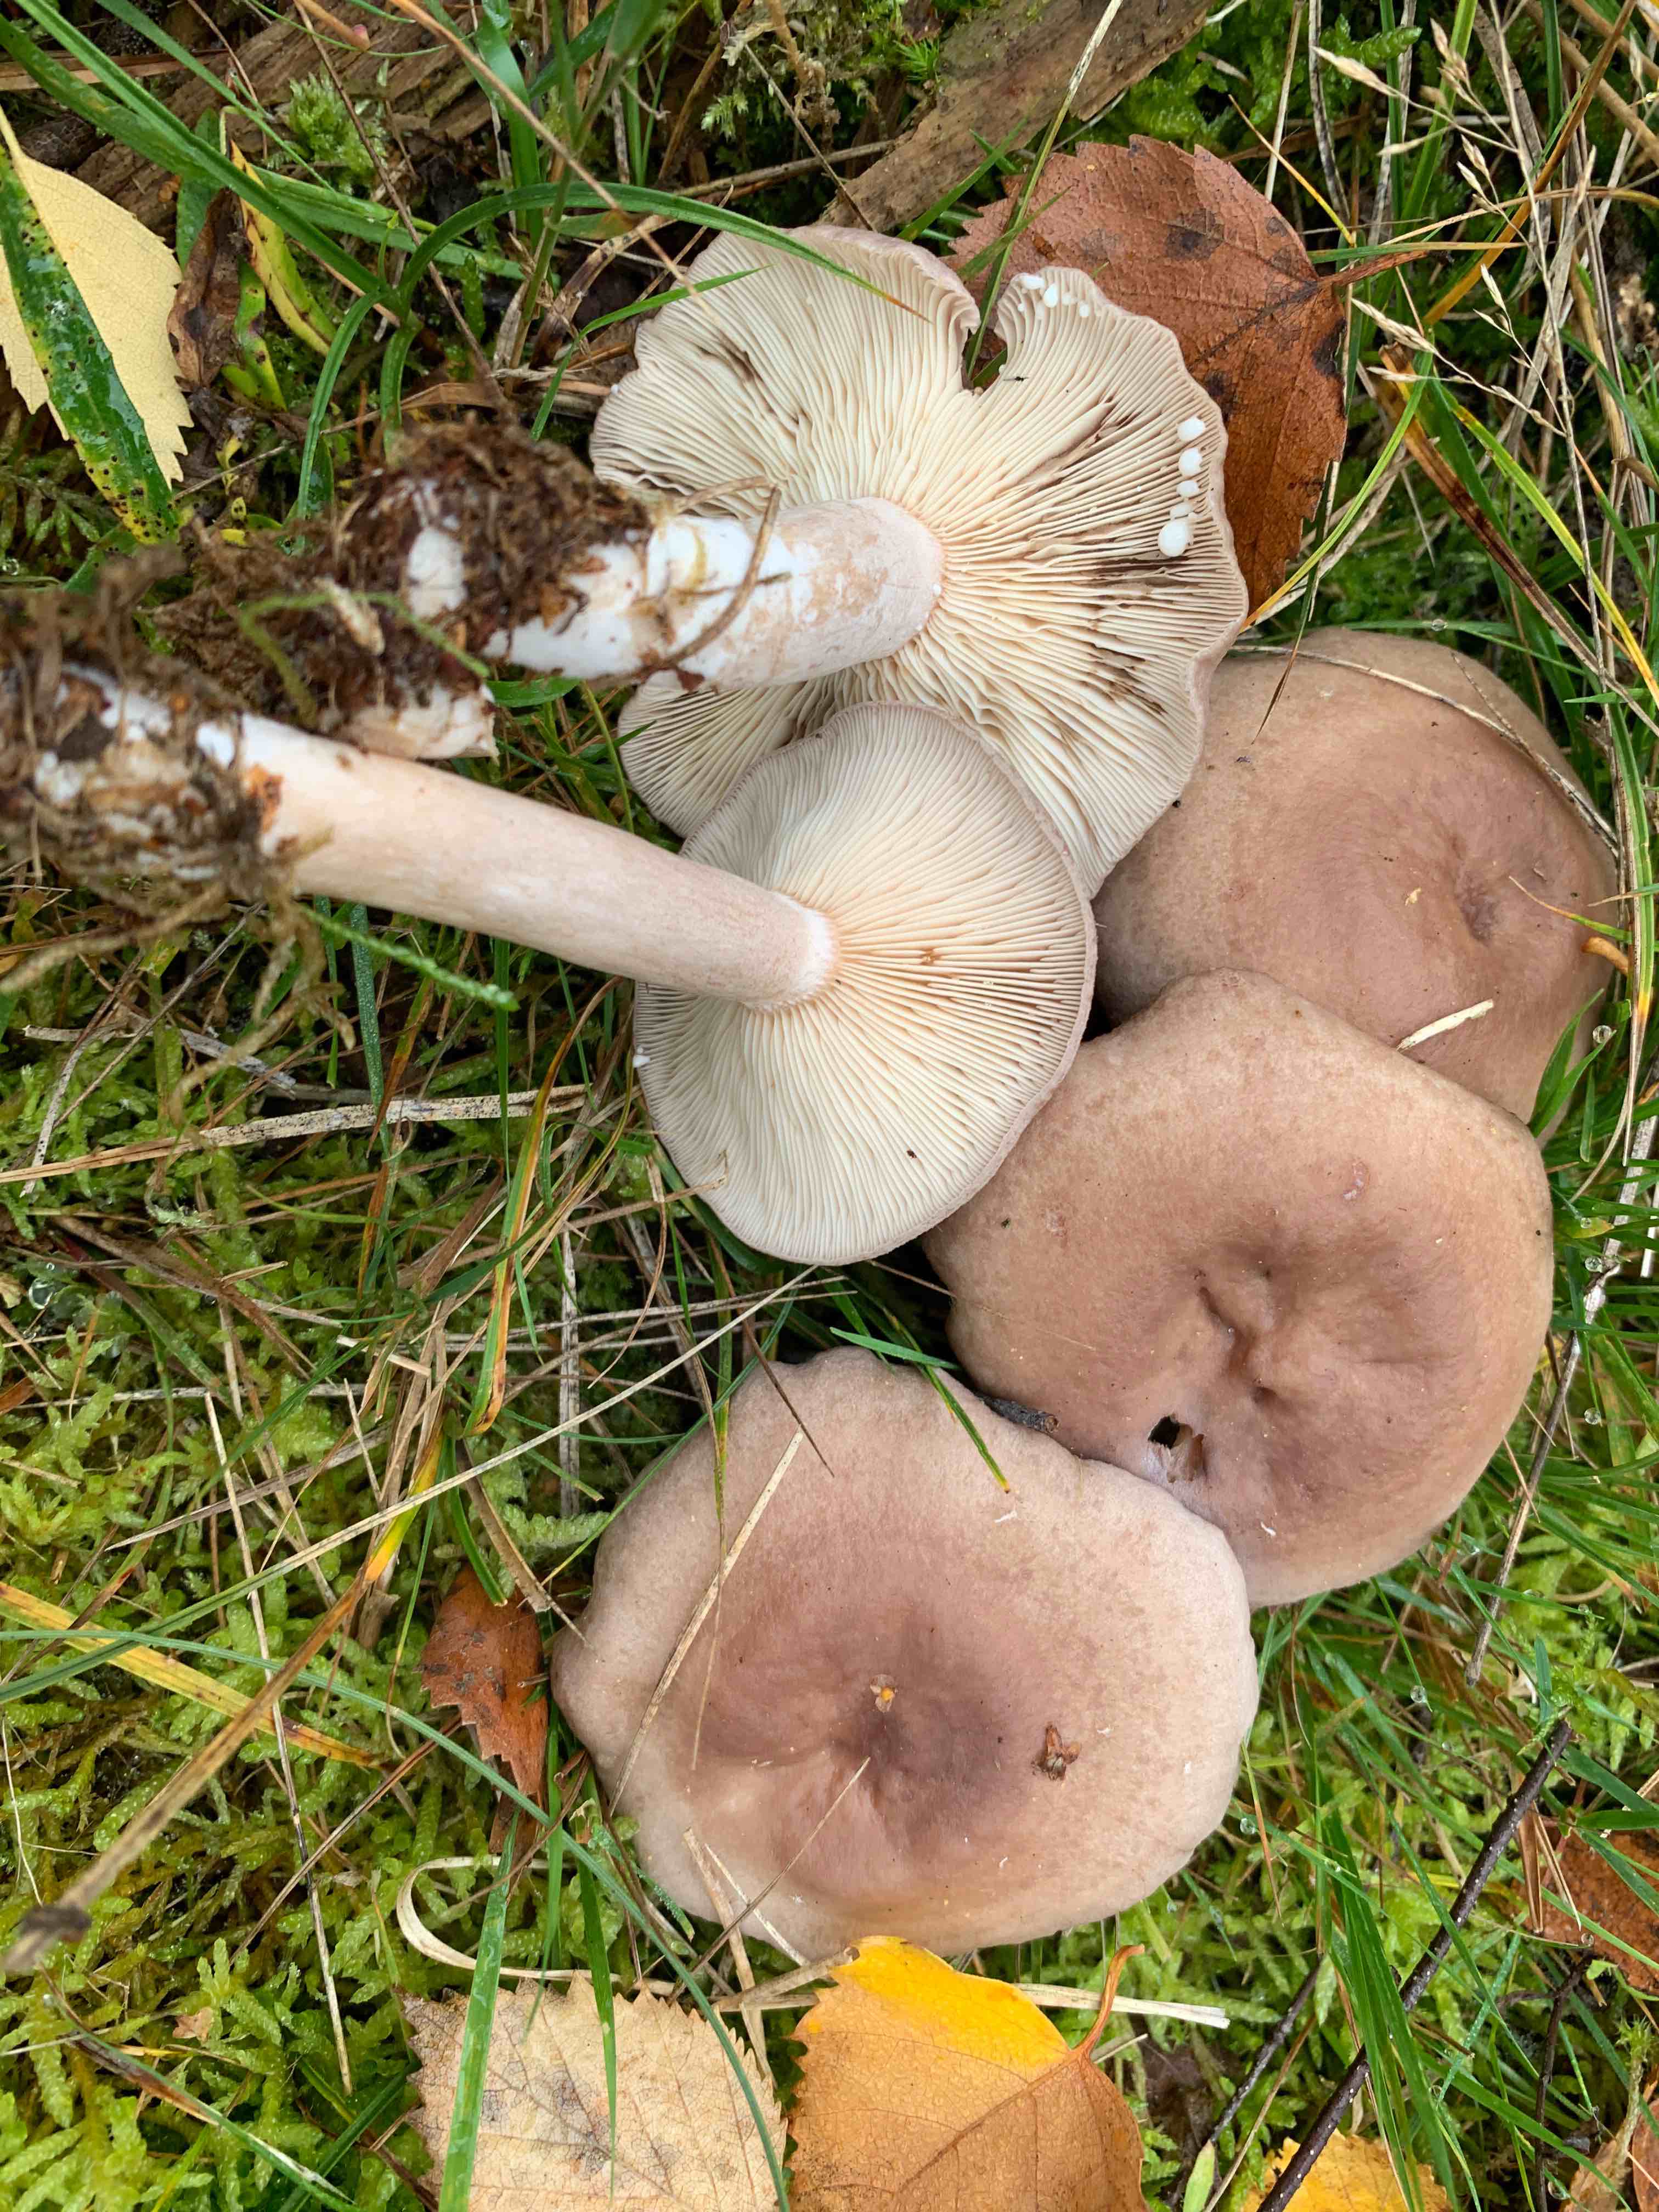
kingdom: Fungi
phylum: Basidiomycota
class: Agaricomycetes
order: Russulales
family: Russulaceae
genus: Lactarius
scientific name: Lactarius vietus
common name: violetgrå mælkehat
